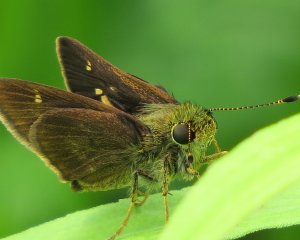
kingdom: Animalia
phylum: Arthropoda
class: Insecta
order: Lepidoptera
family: Hesperiidae
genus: Vernia
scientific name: Vernia verna
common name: Little Glassywing
